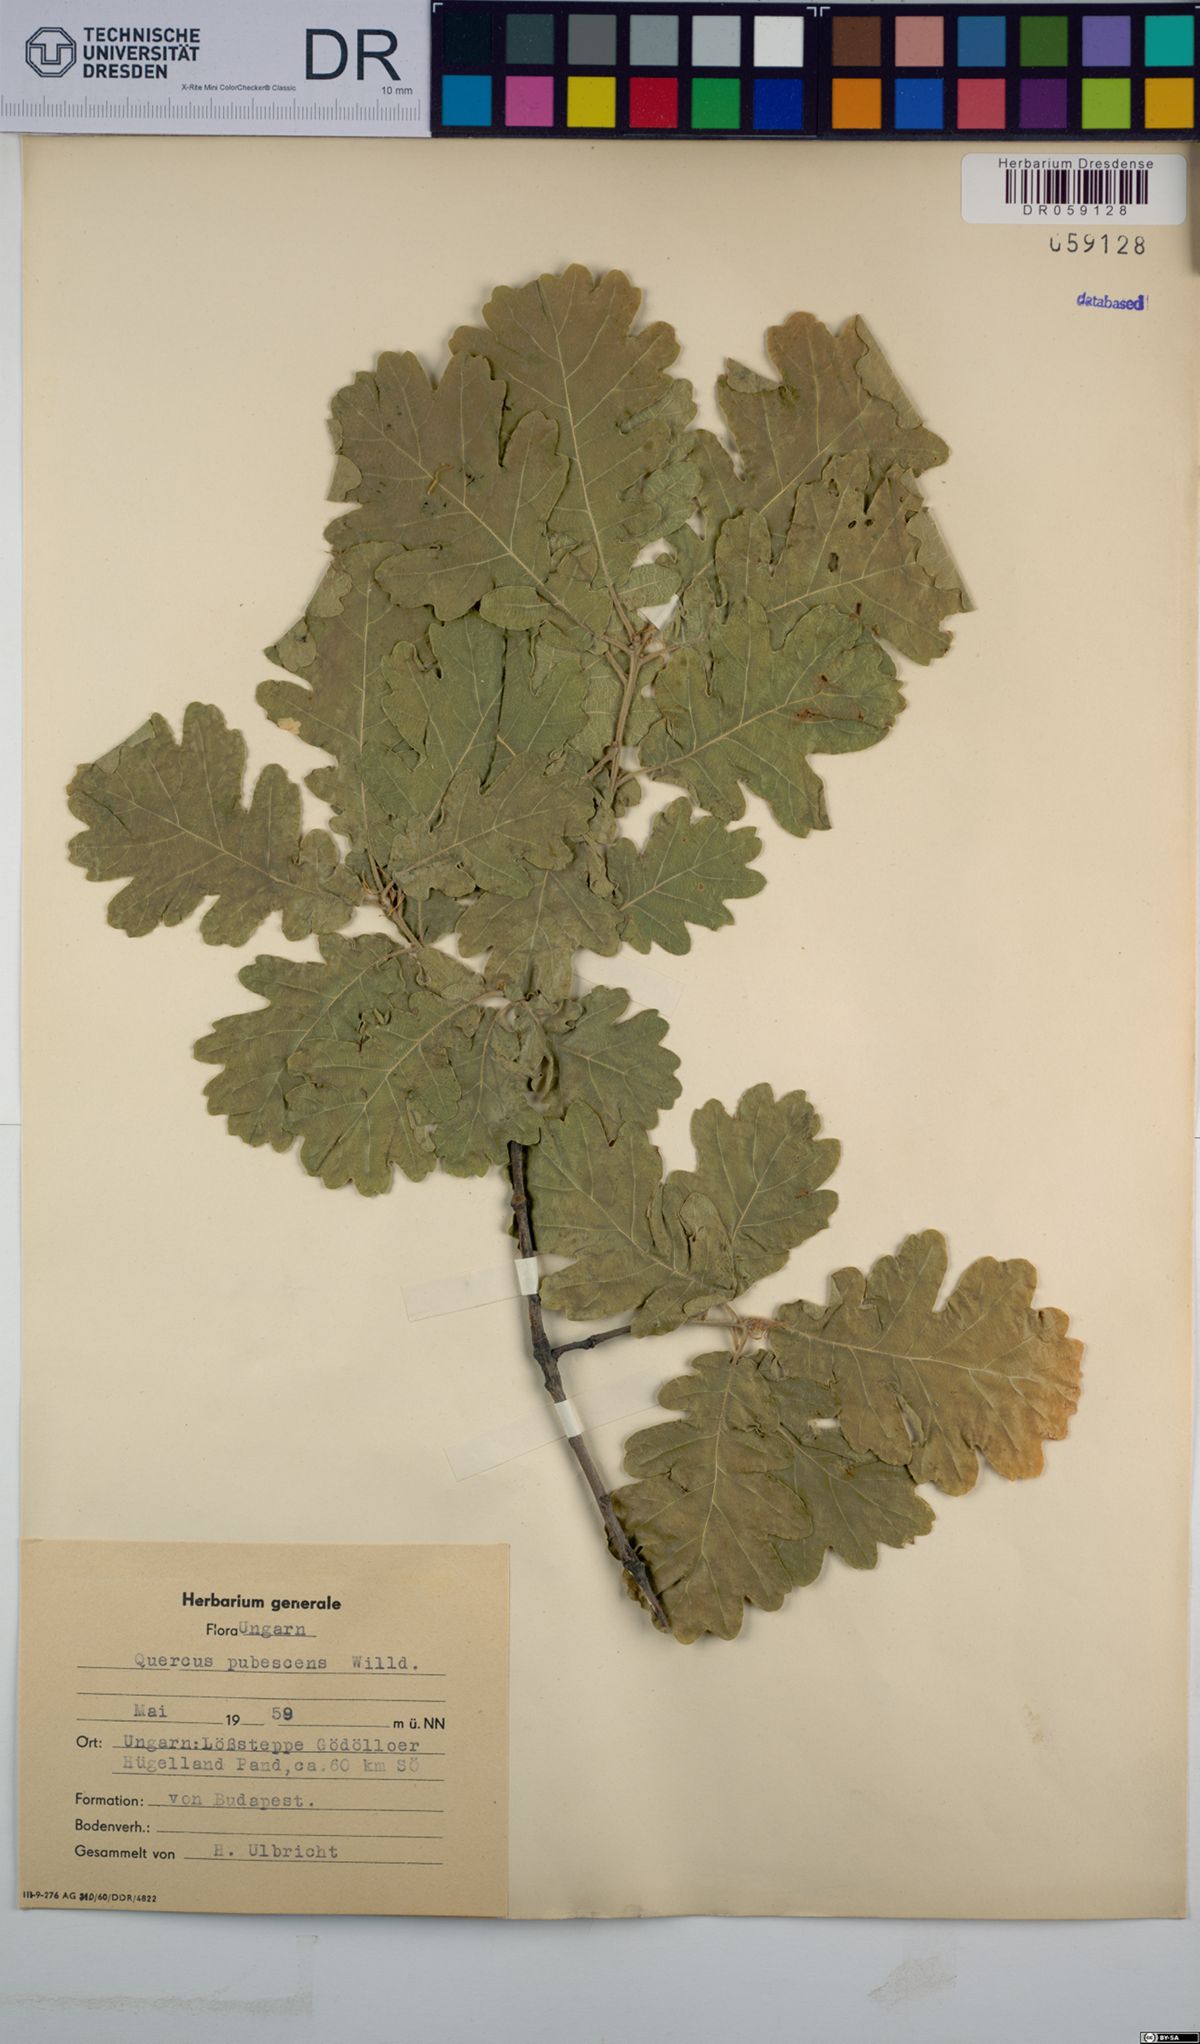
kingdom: Plantae
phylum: Tracheophyta
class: Magnoliopsida
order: Fagales
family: Fagaceae
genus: Quercus
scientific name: Quercus pubescens
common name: Downy oak
